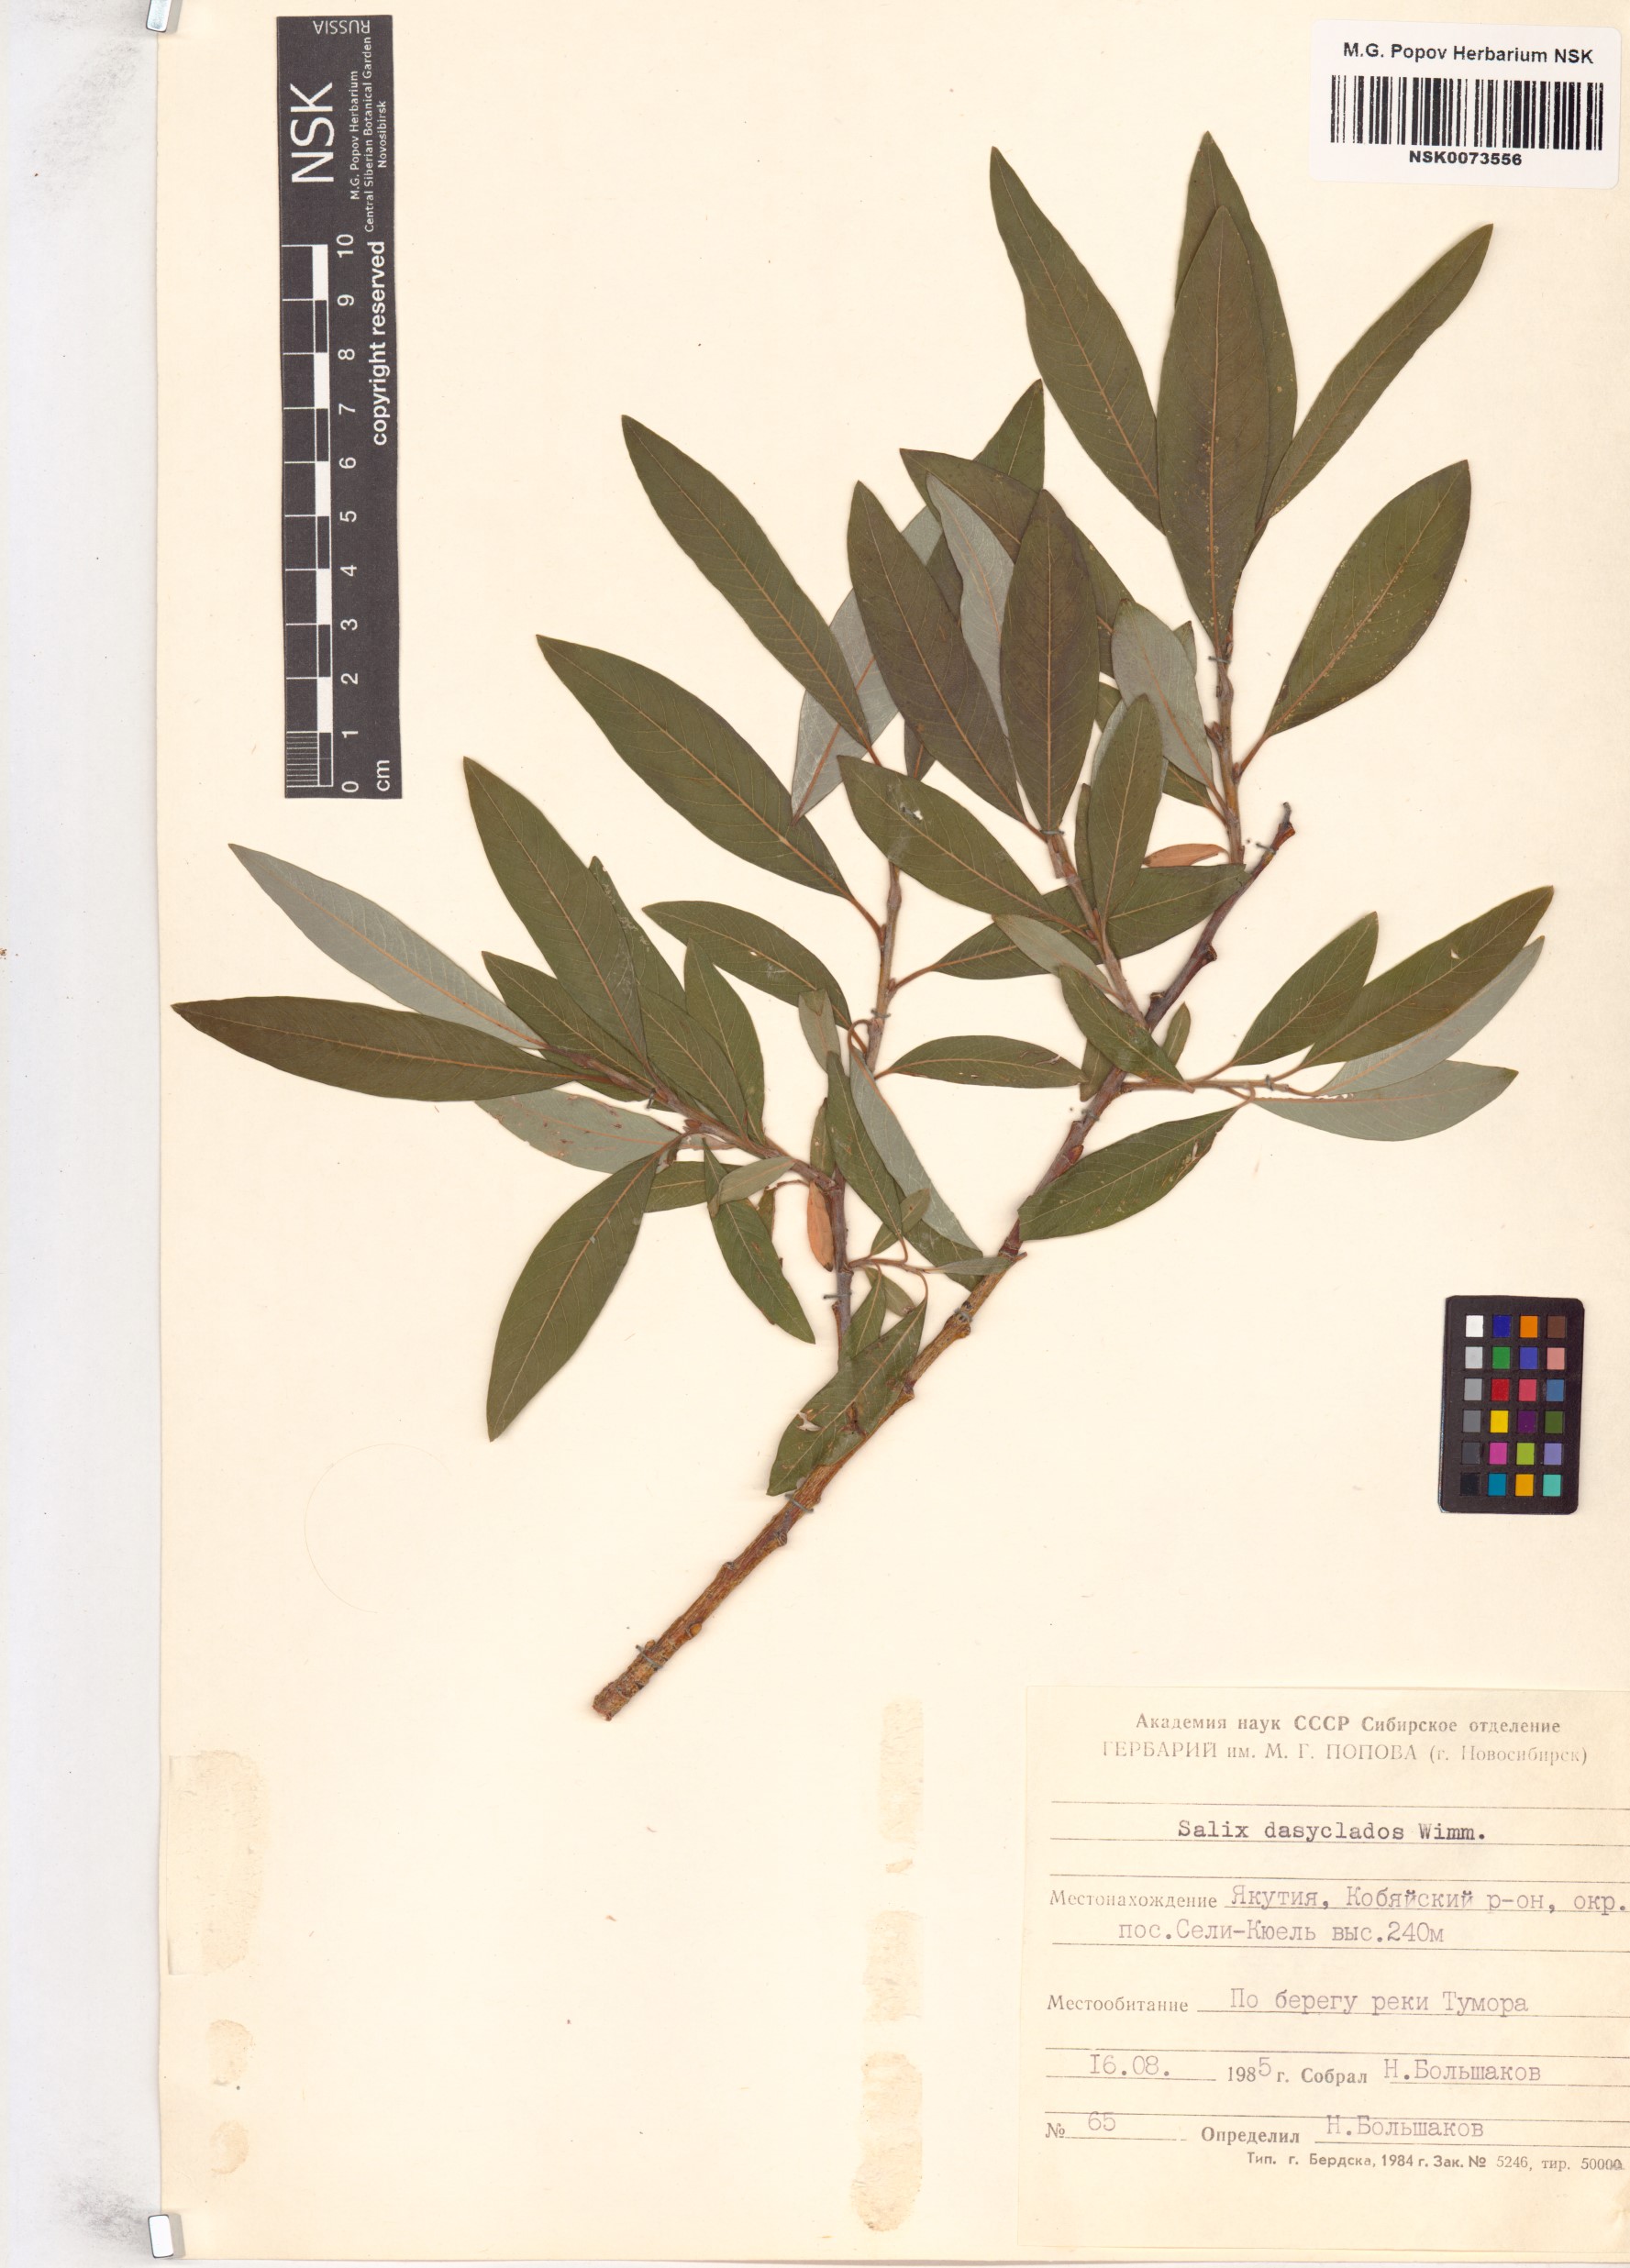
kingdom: Plantae
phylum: Tracheophyta
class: Magnoliopsida
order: Malpighiales
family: Salicaceae
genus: Salix
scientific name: Salix gmelinii
